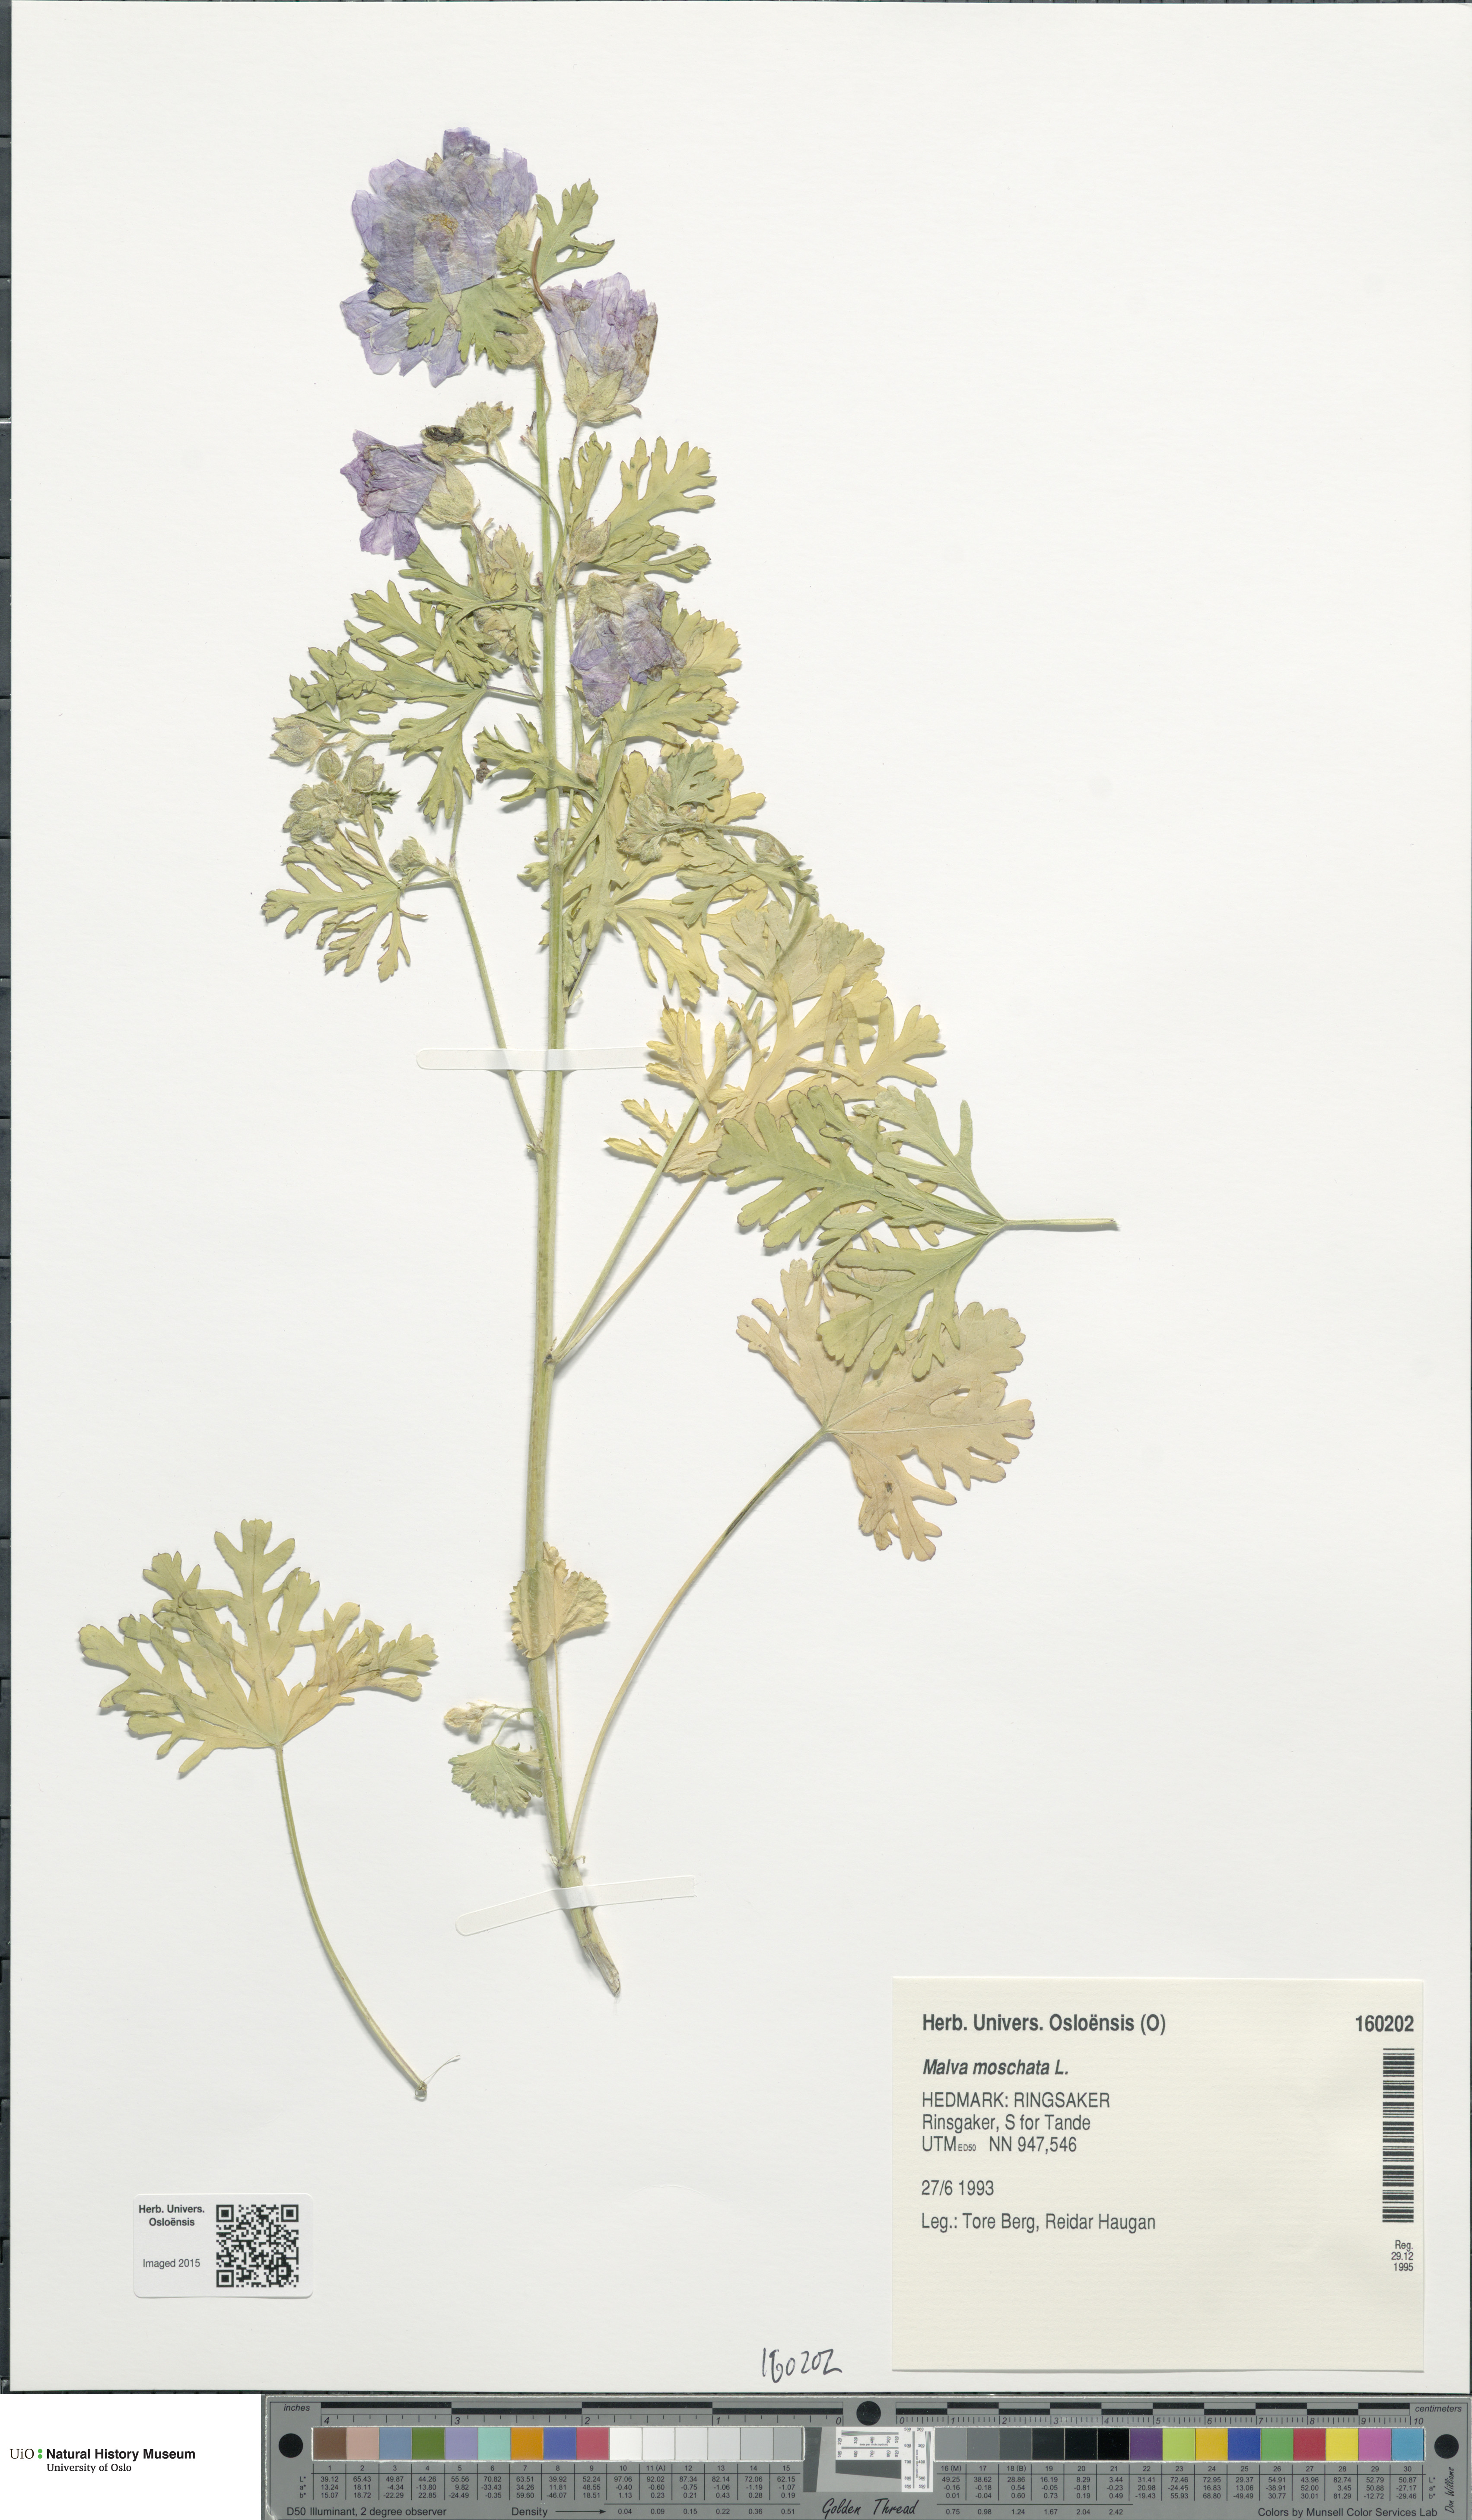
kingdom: Plantae
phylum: Tracheophyta
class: Magnoliopsida
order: Malvales
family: Malvaceae
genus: Malva
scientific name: Malva moschata
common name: Musk mallow
